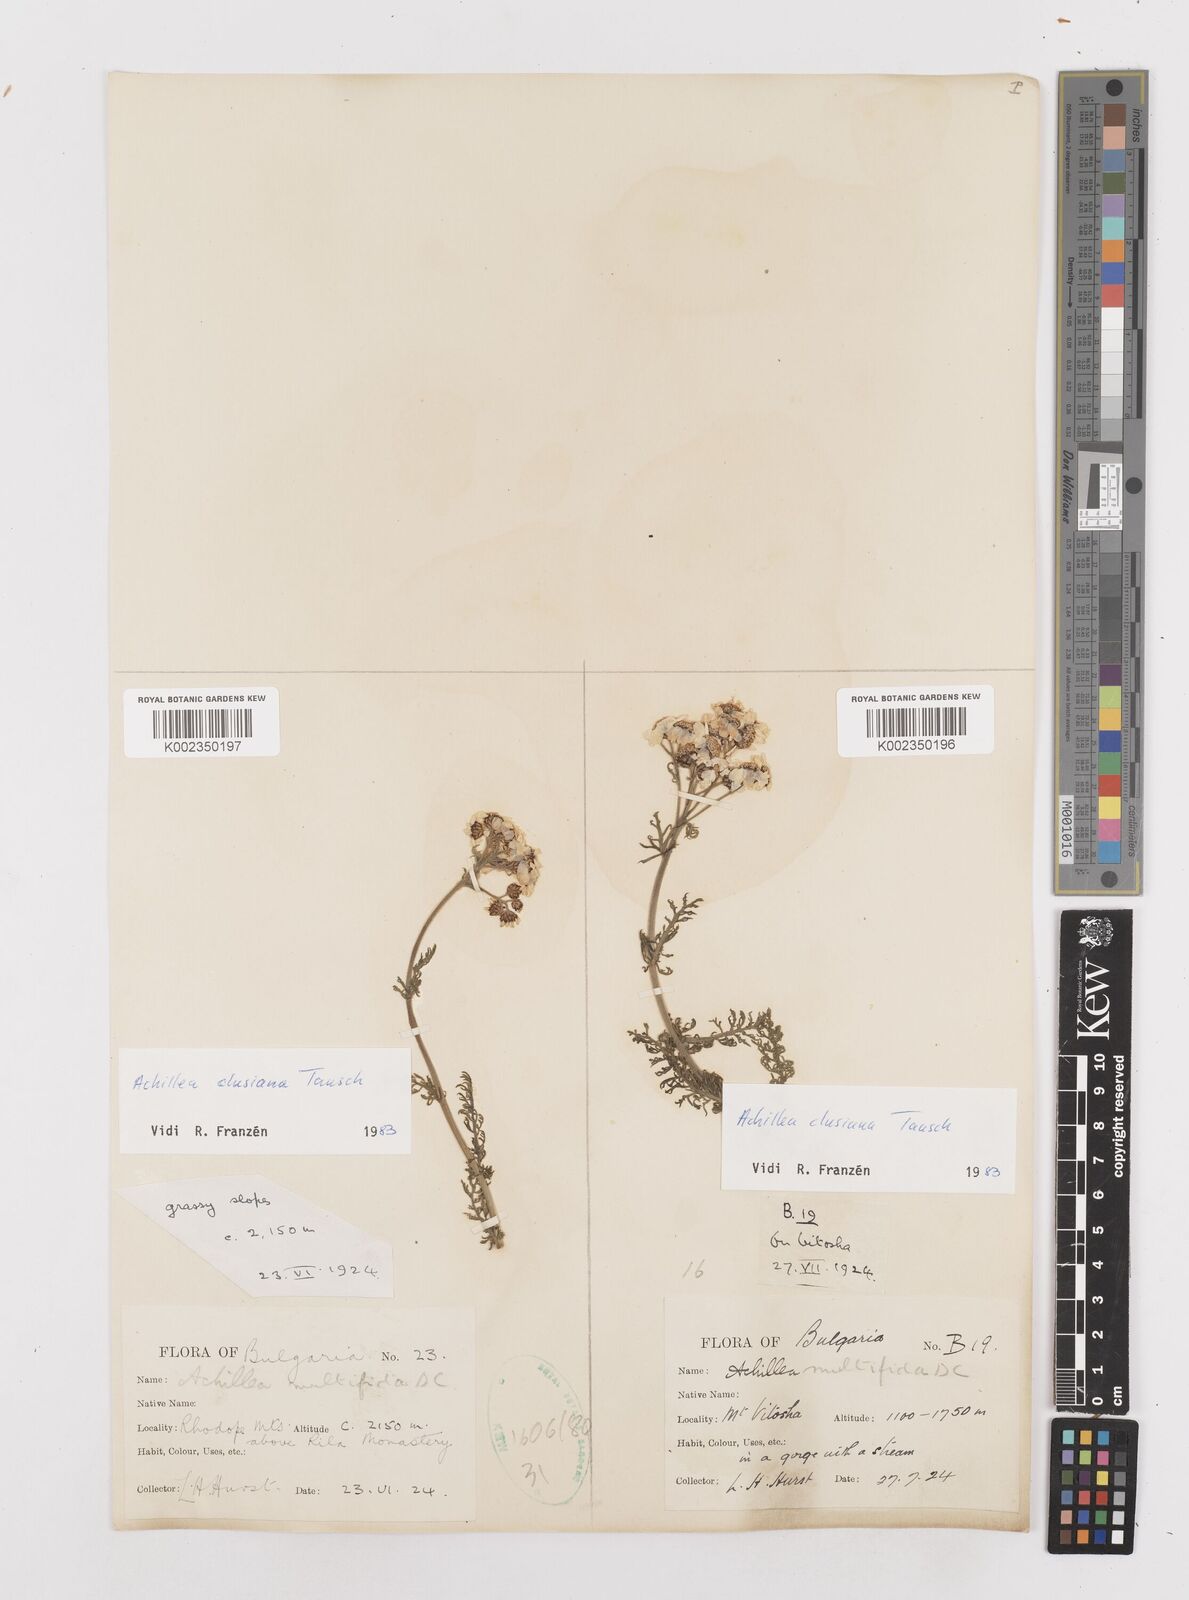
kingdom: Plantae
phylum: Tracheophyta
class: Magnoliopsida
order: Asterales
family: Asteraceae
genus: Achillea
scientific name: Achillea clusiana
